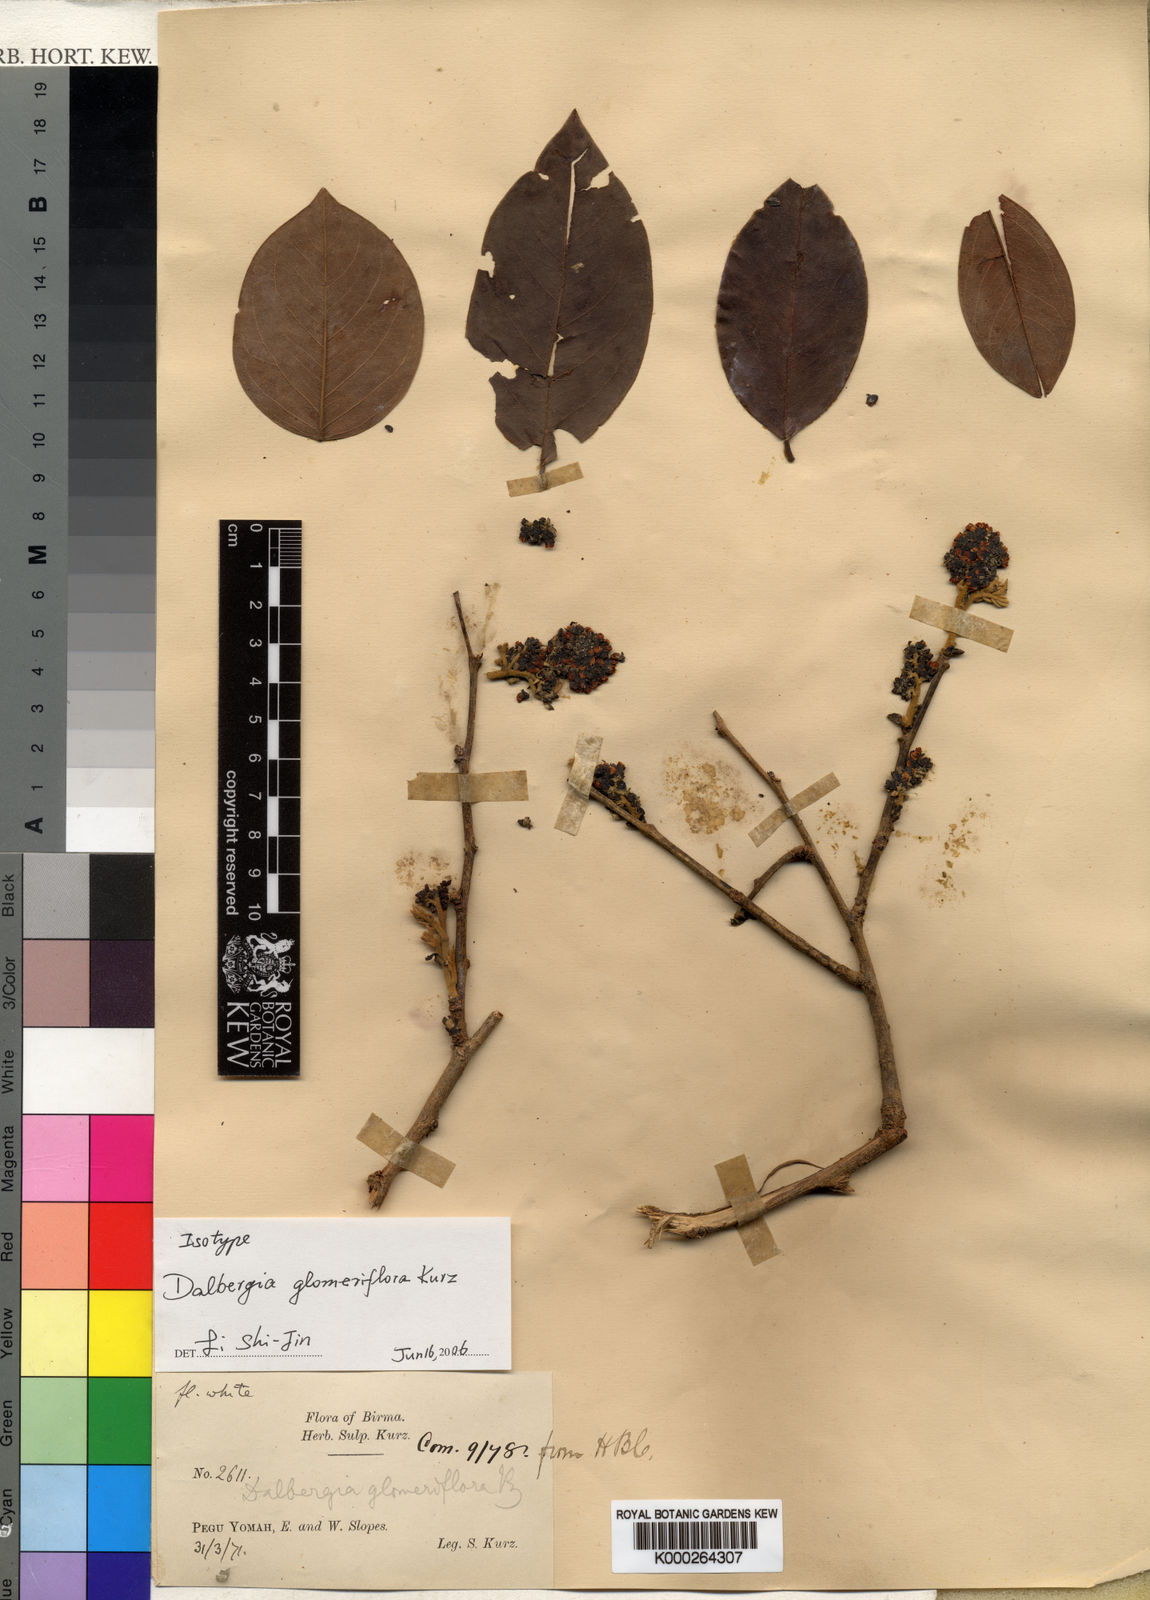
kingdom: Plantae
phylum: Tracheophyta
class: Magnoliopsida
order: Fabales
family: Fabaceae
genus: Dalbergia
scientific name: Dalbergia glomeriflora
